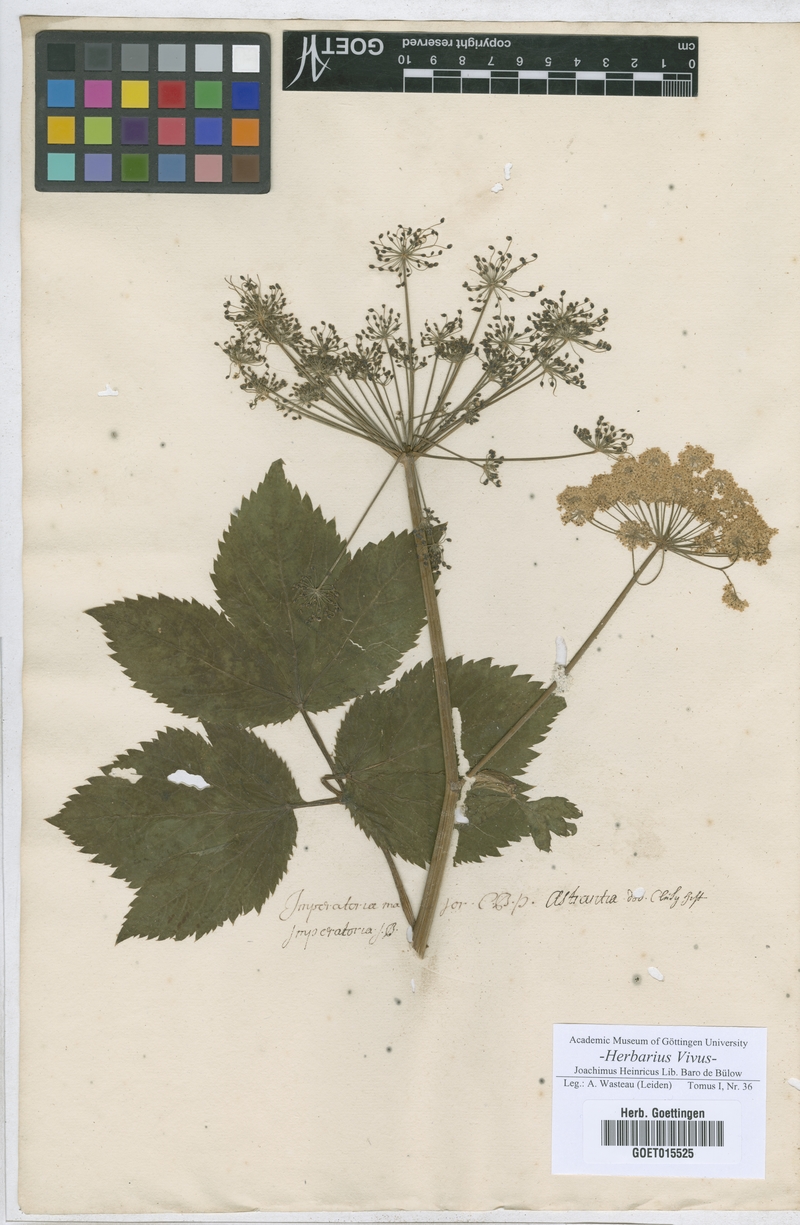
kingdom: Plantae
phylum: Tracheophyta
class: Magnoliopsida
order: Apiales
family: Apiaceae
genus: Imperatoria
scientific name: Imperatoria ostruthium
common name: Masterwort
